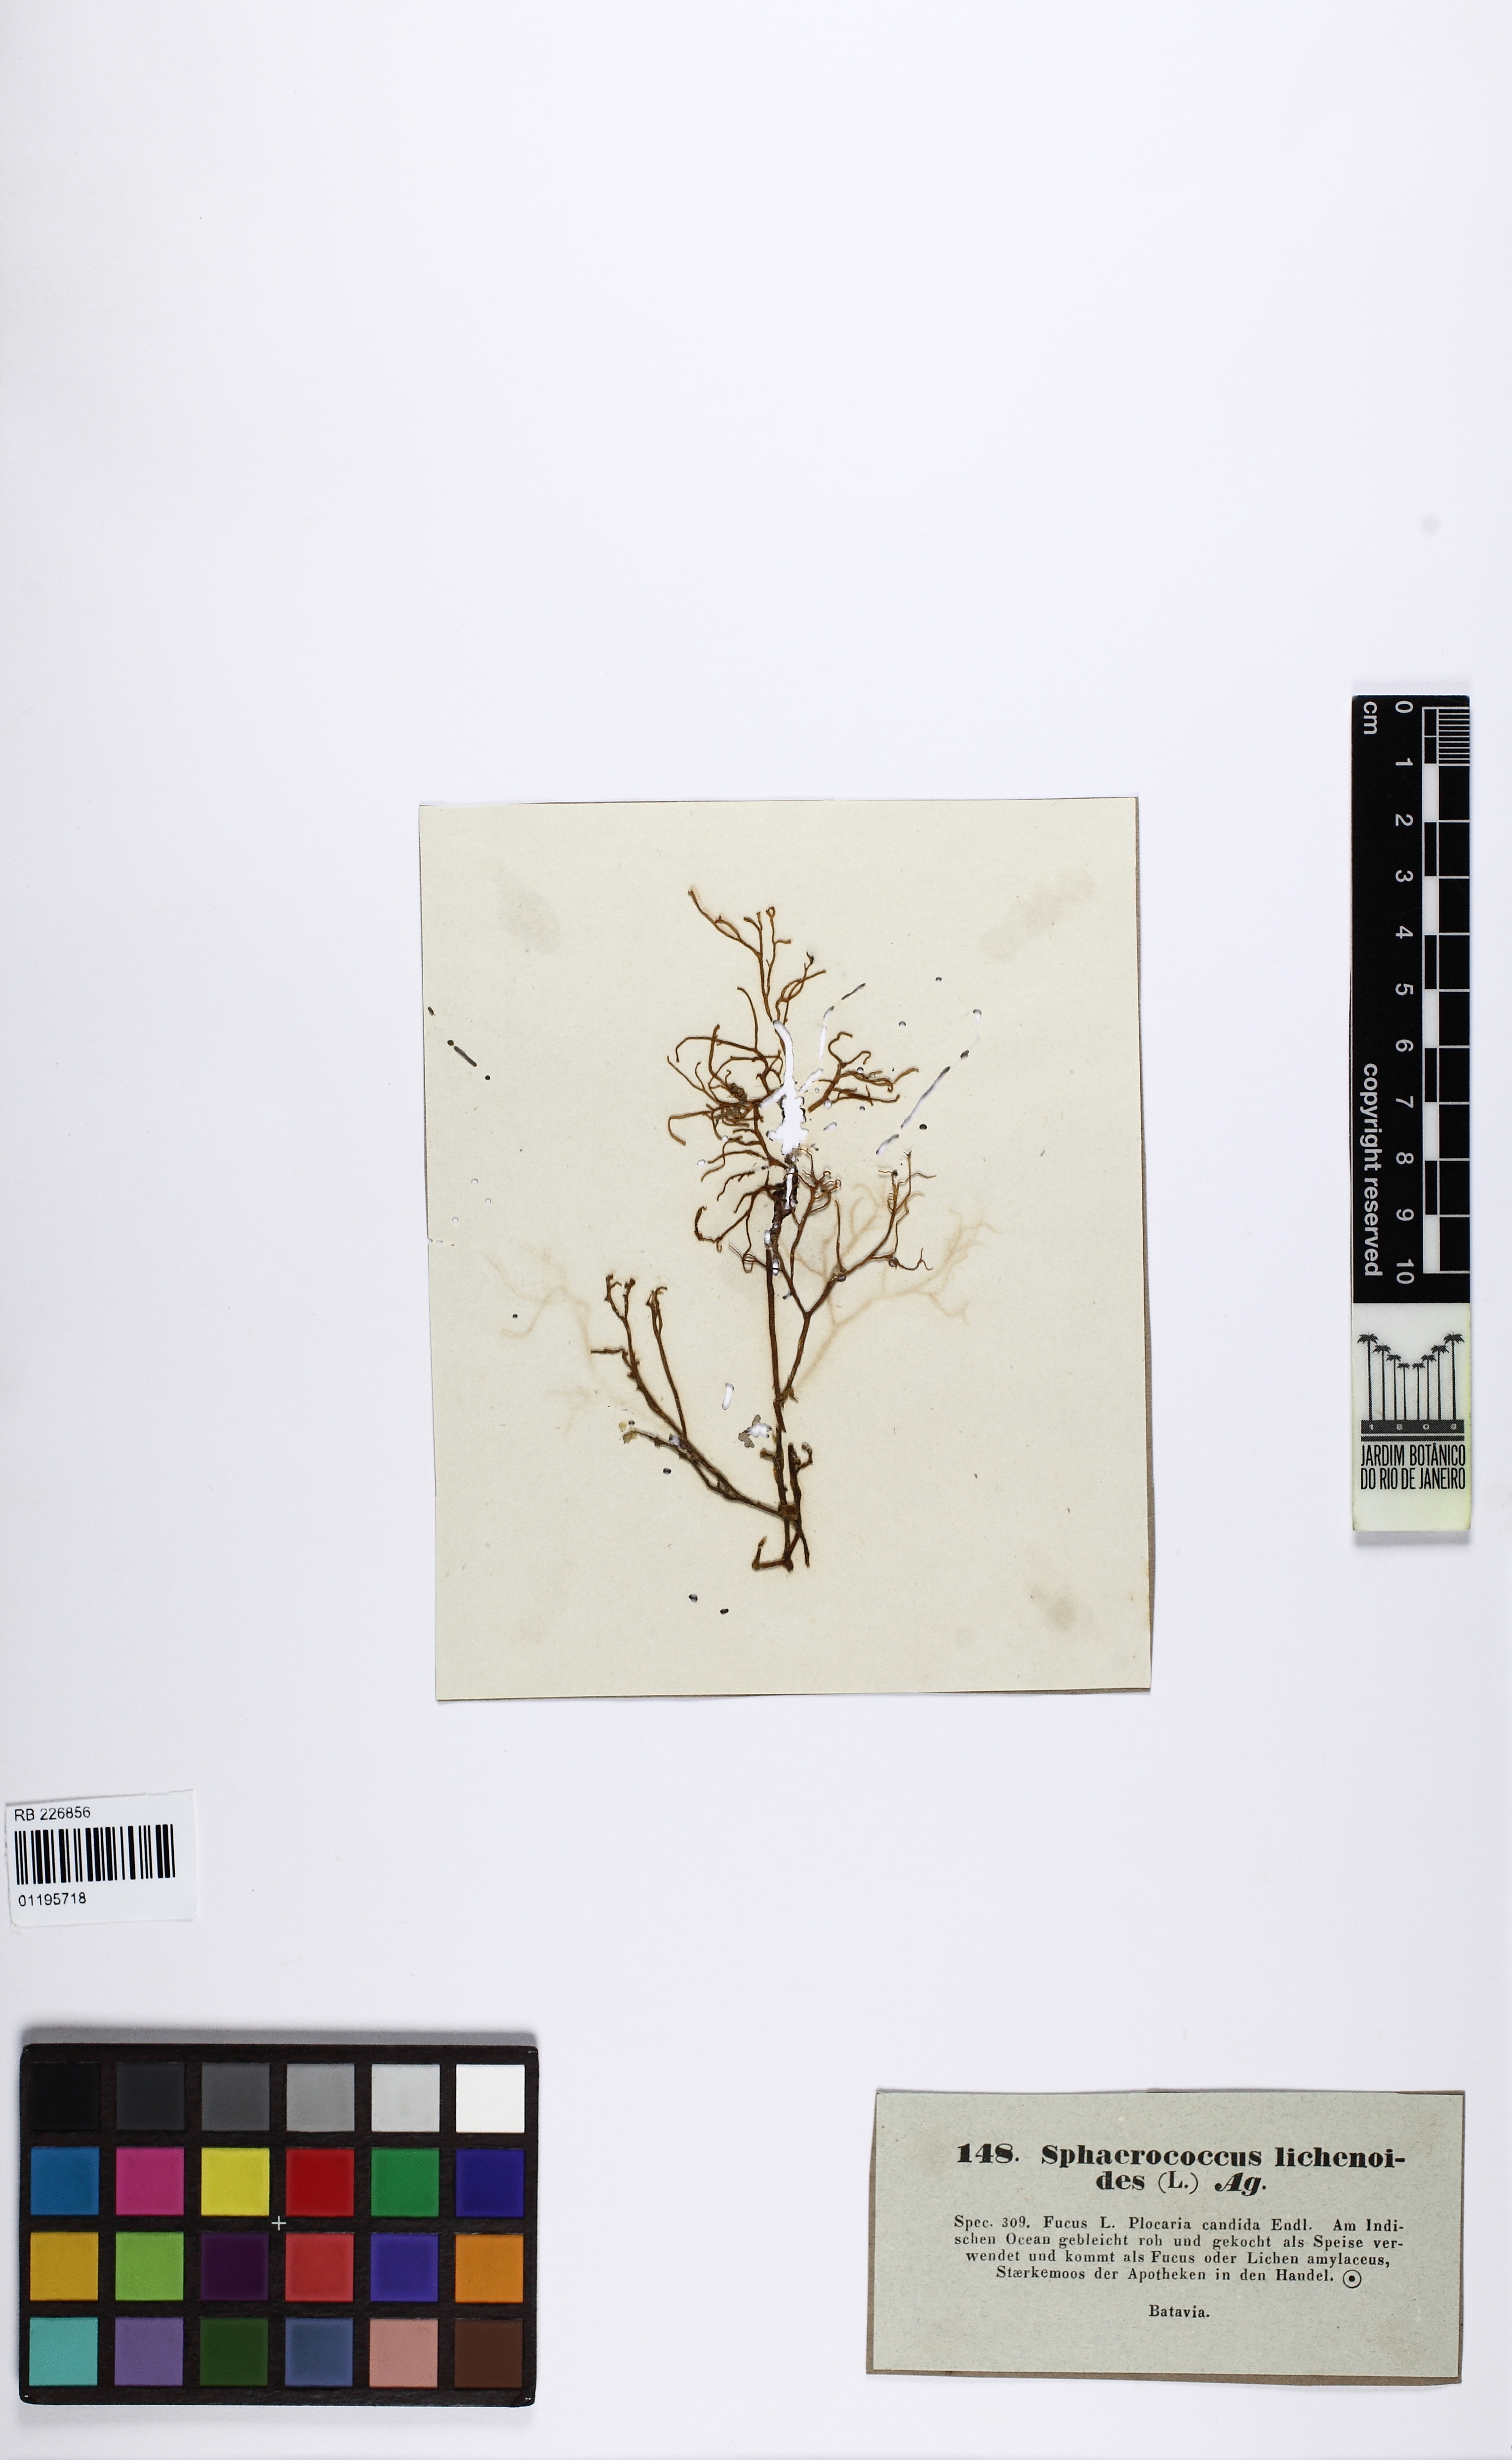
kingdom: Plantae
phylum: Rhodophyta
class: Florideophyceae
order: Gracilariales
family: Gracilariaceae
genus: Hydropuntia
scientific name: Hydropuntia edulis
